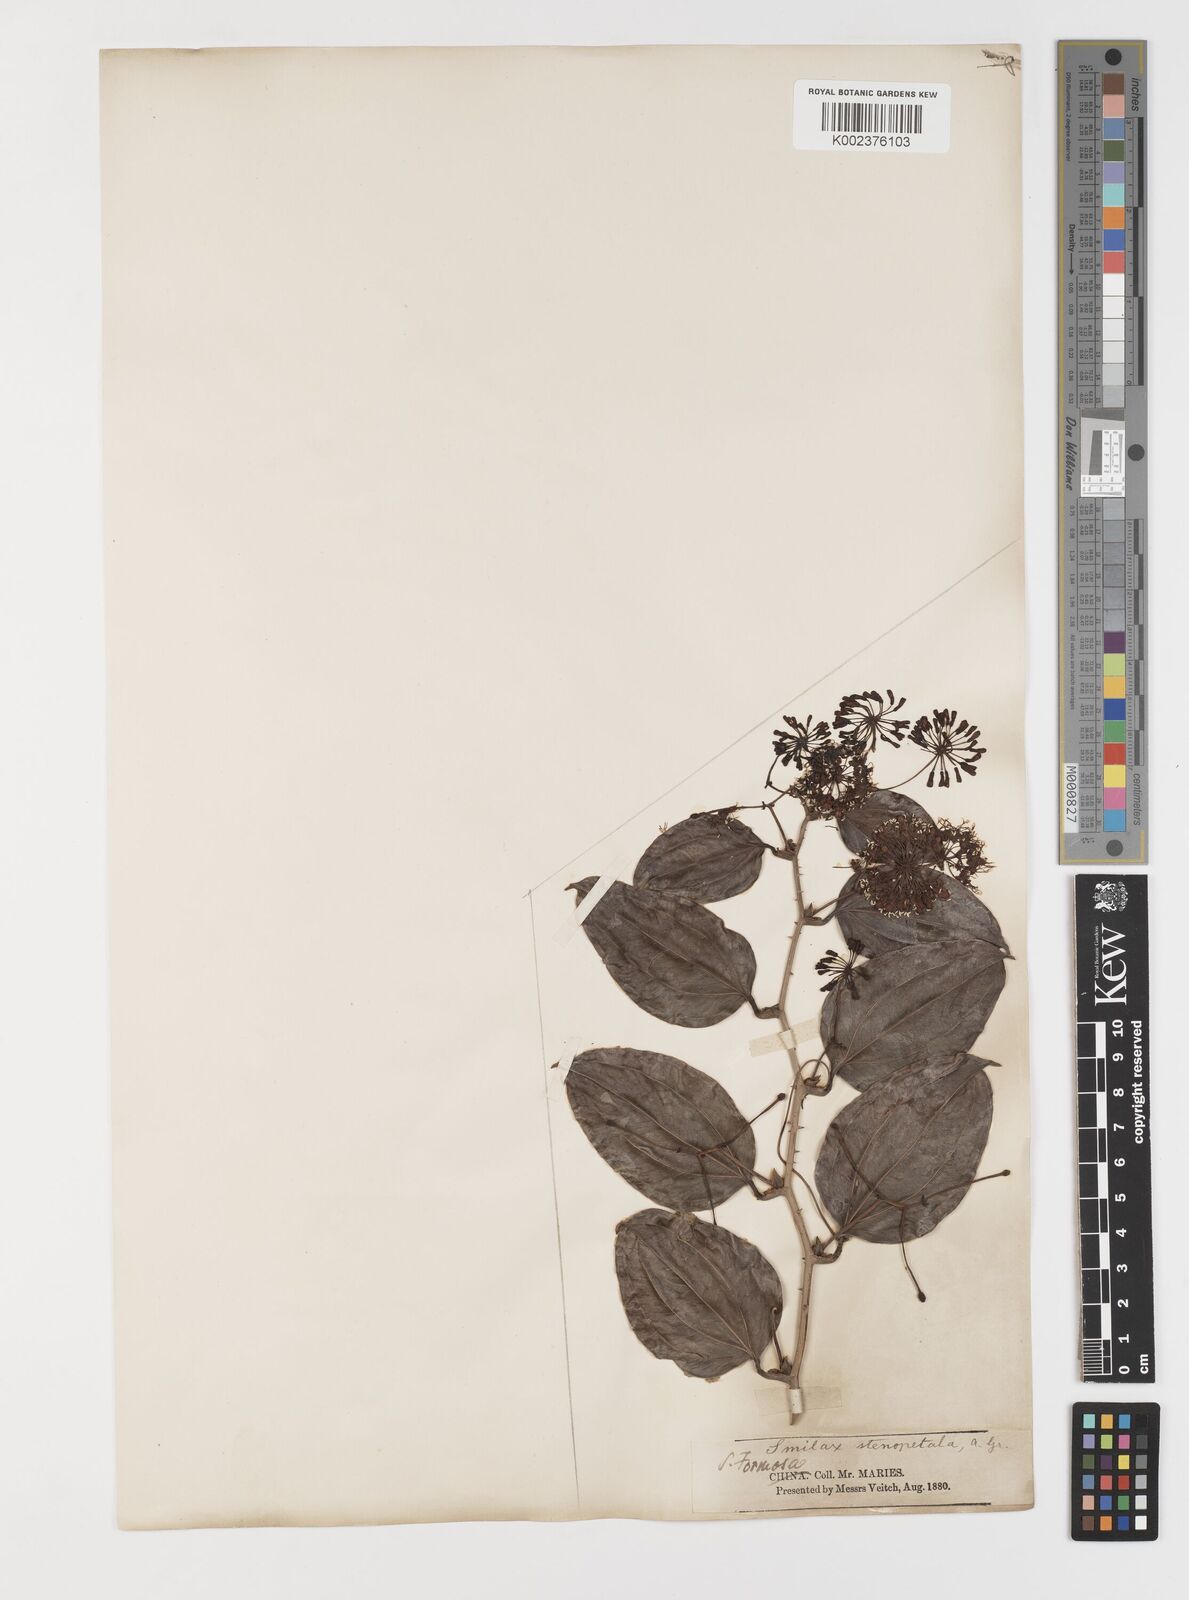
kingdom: Plantae
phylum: Tracheophyta
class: Liliopsida
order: Liliales
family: Smilacaceae
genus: Smilax
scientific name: Smilax bracteata
